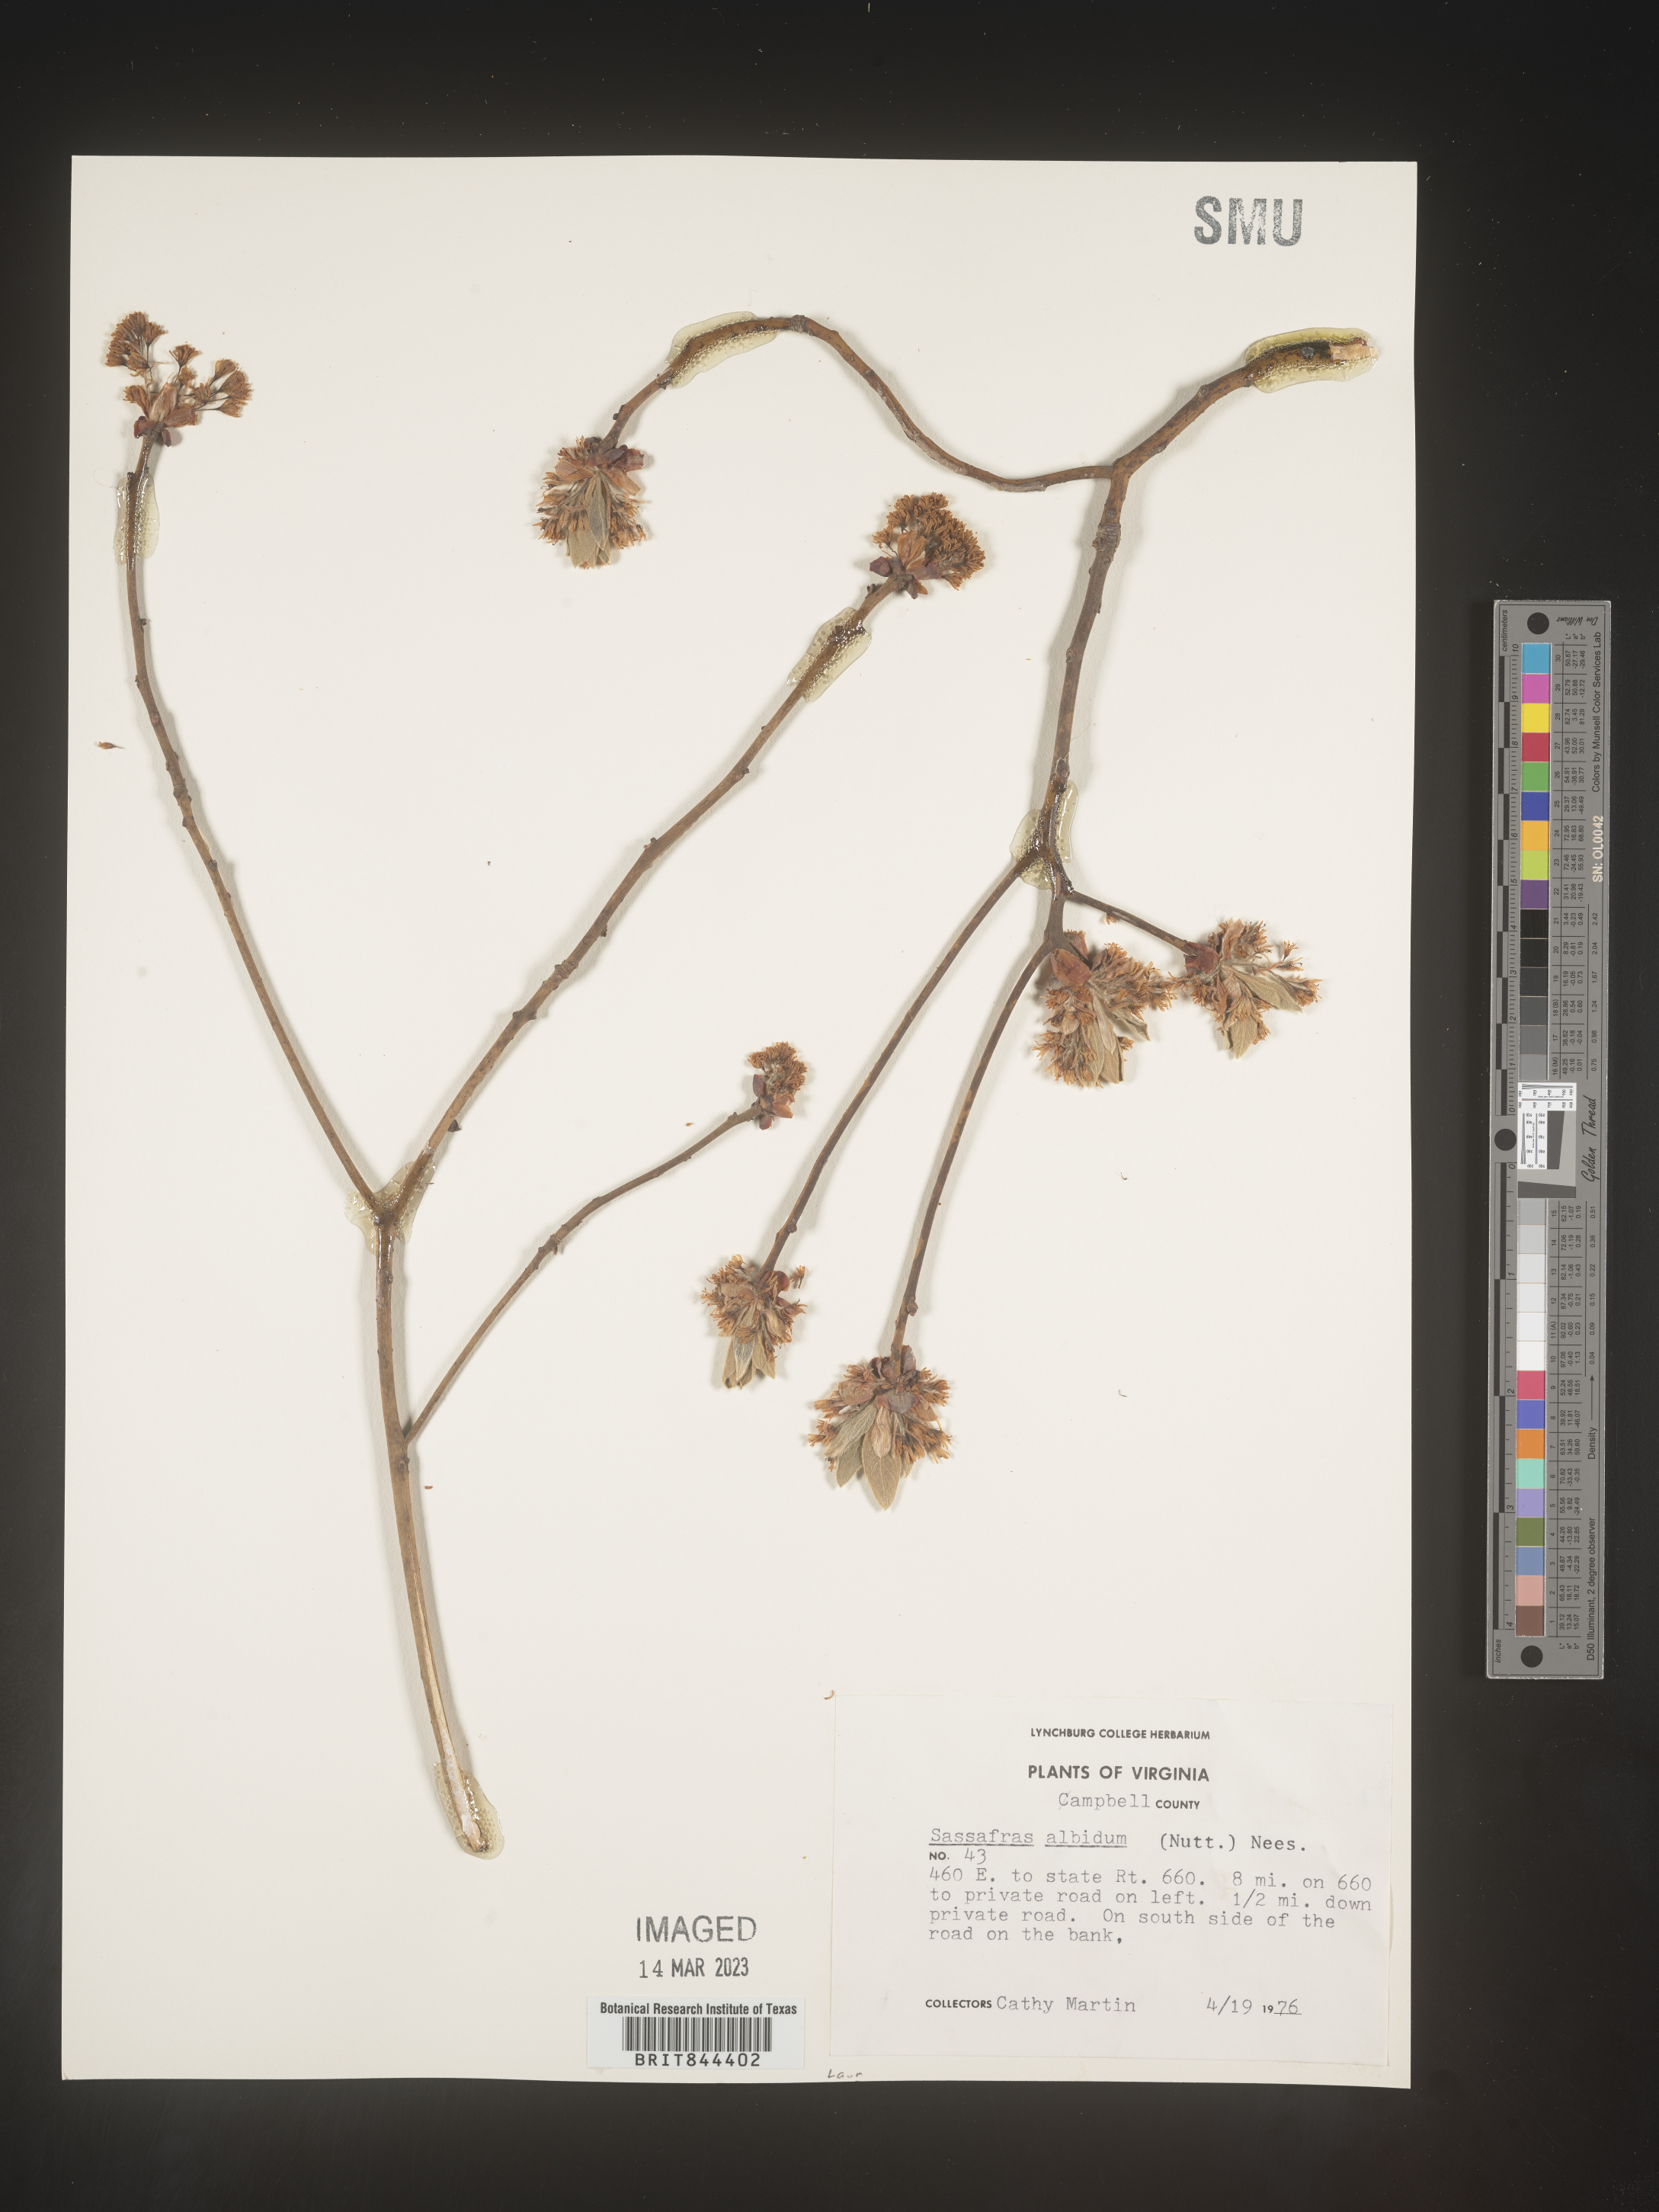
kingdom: Plantae
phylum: Tracheophyta
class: Magnoliopsida
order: Laurales
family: Lauraceae
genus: Sassafras
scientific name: Sassafras albidum
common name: Sassafras
